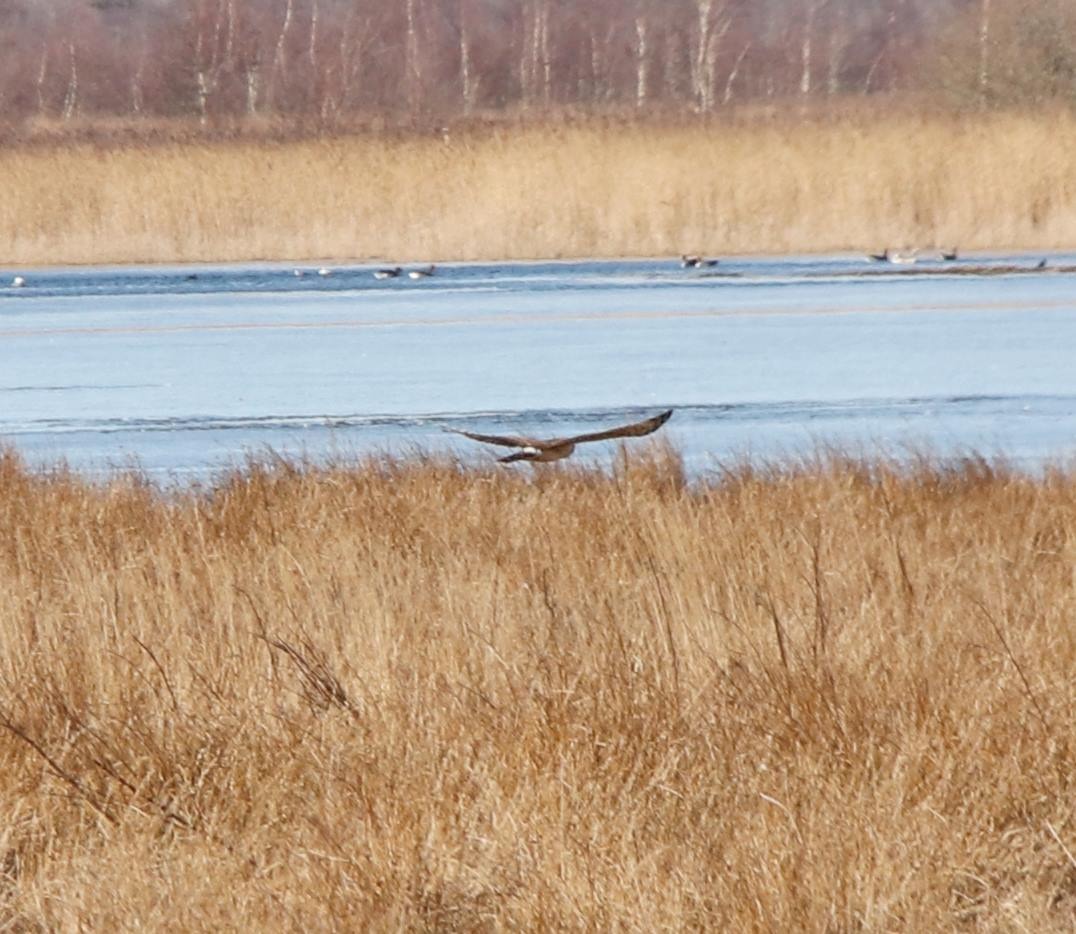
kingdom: Animalia
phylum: Chordata
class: Aves
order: Accipitriformes
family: Accipitridae
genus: Circus
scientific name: Circus cyaneus
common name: Blå kærhøg
